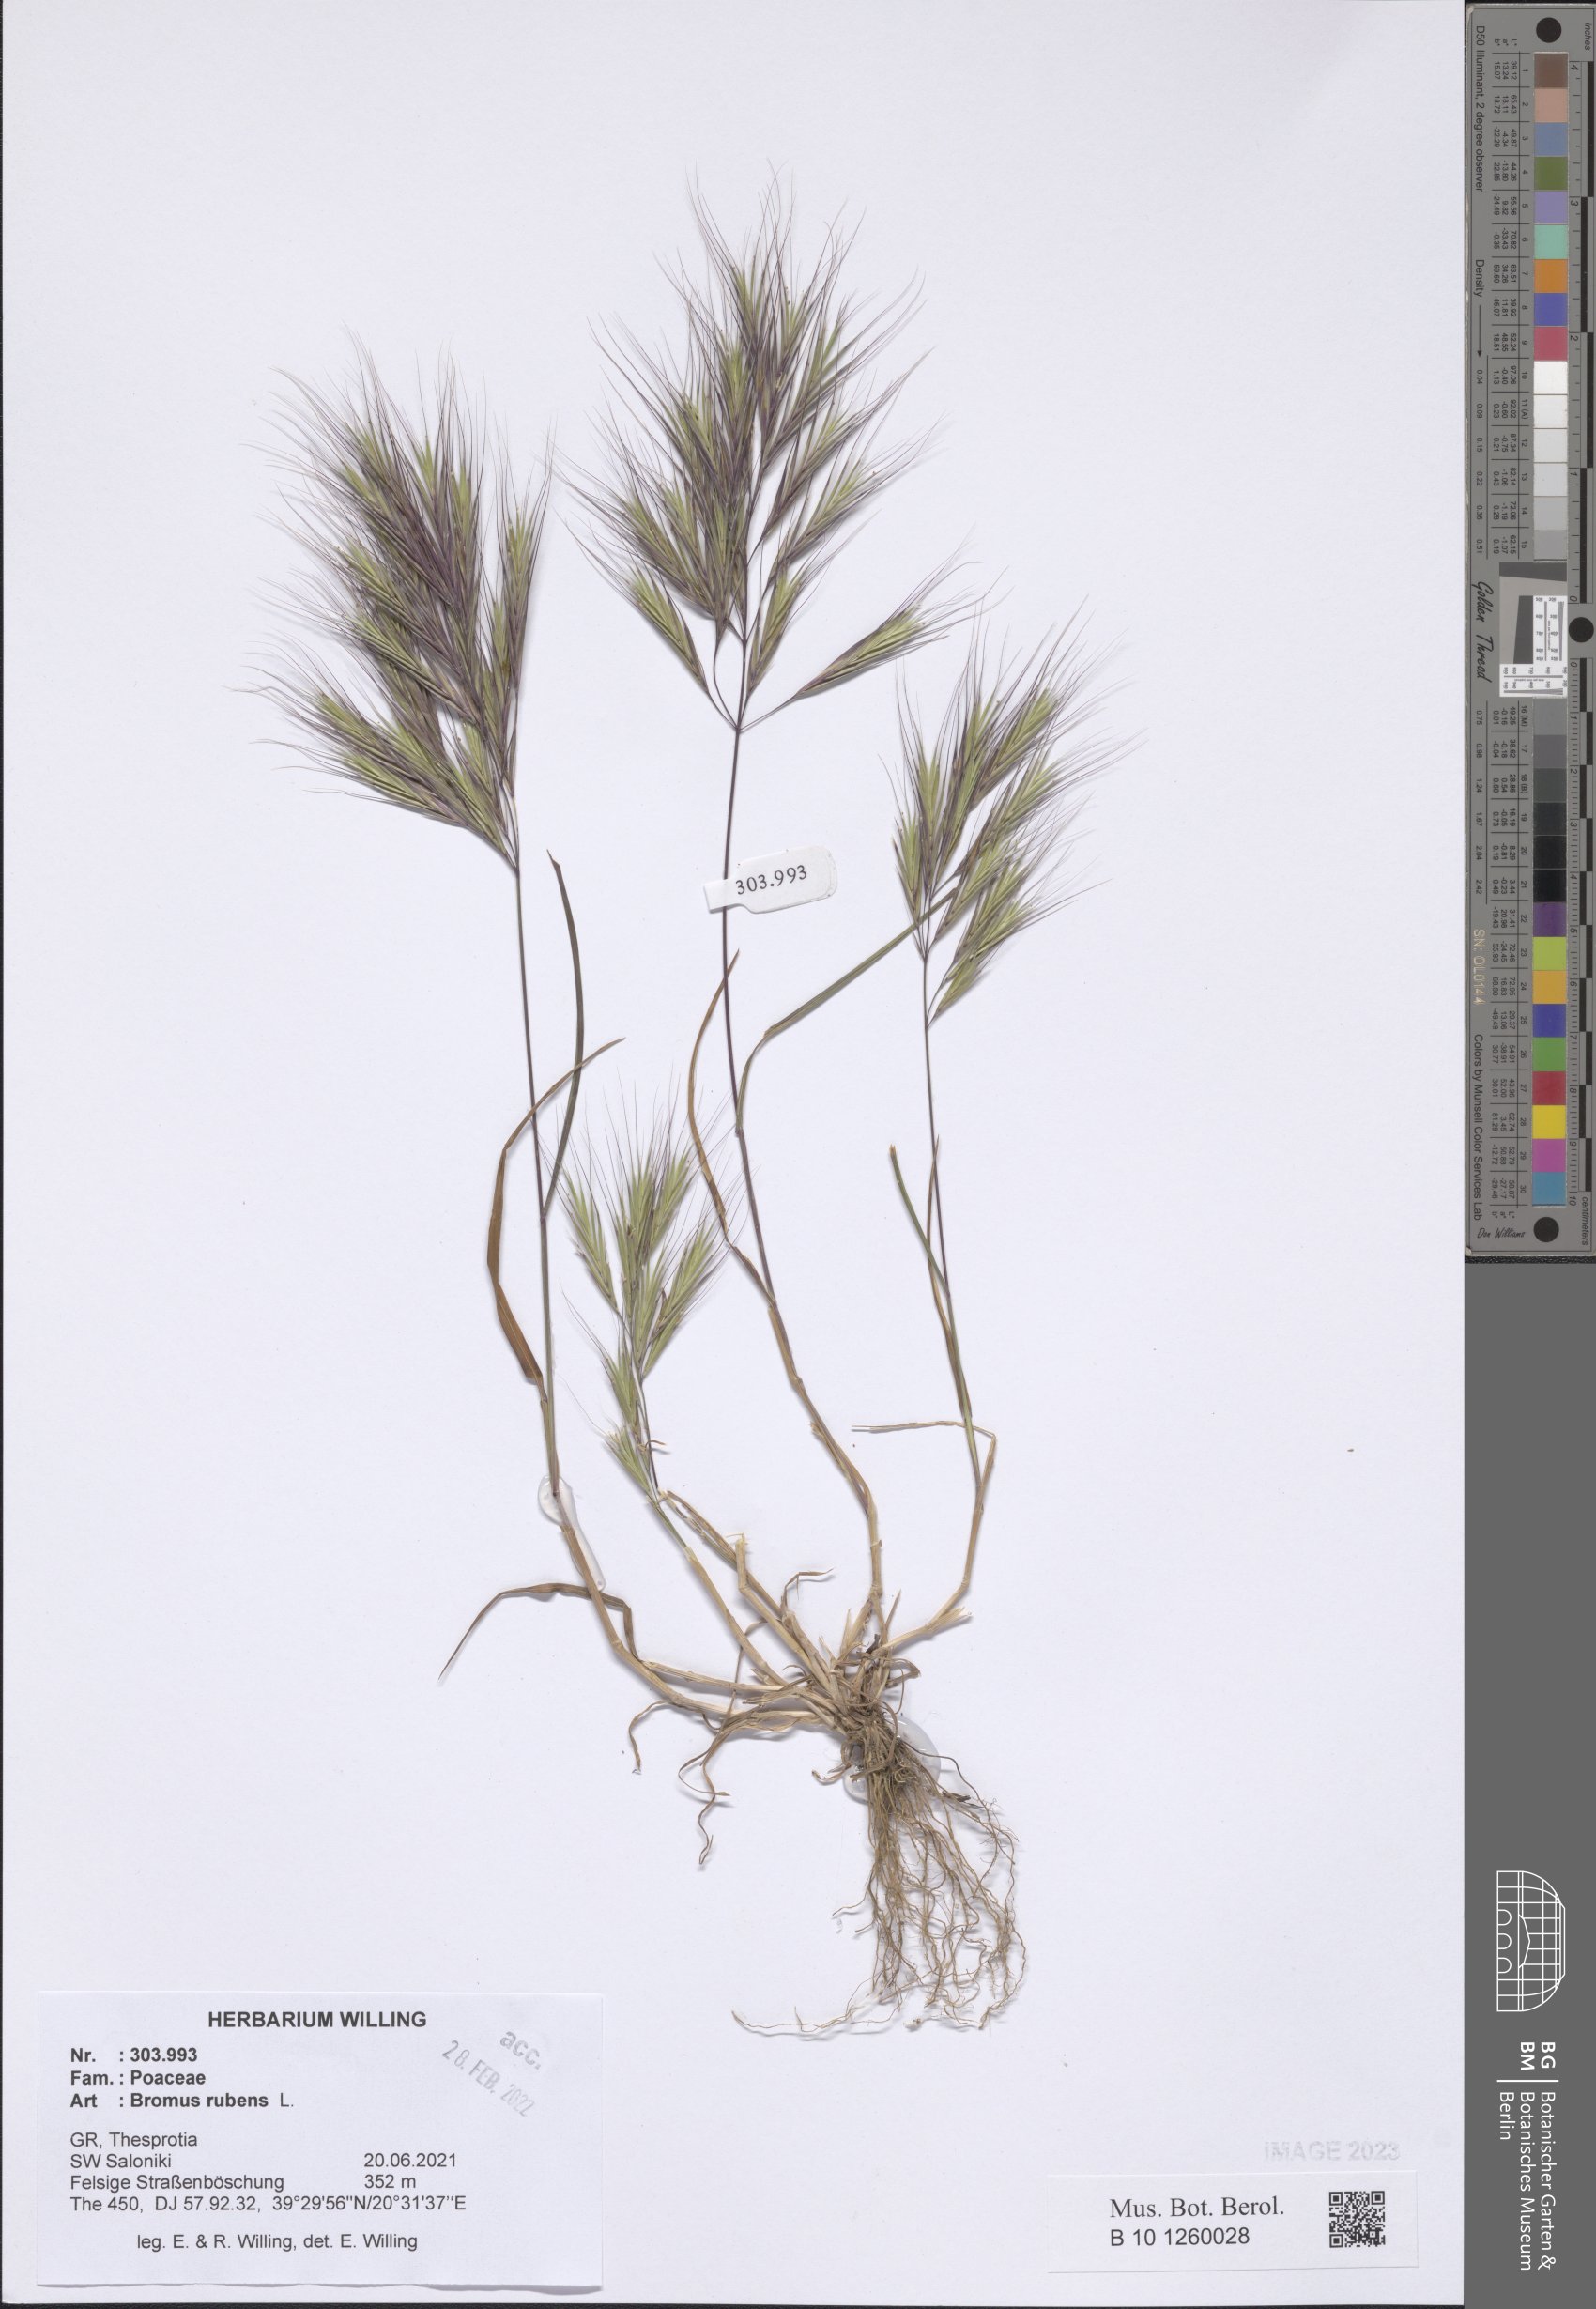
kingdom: Plantae
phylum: Tracheophyta
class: Liliopsida
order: Poales
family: Poaceae
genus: Bromus
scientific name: Bromus rubens
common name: Red brome
